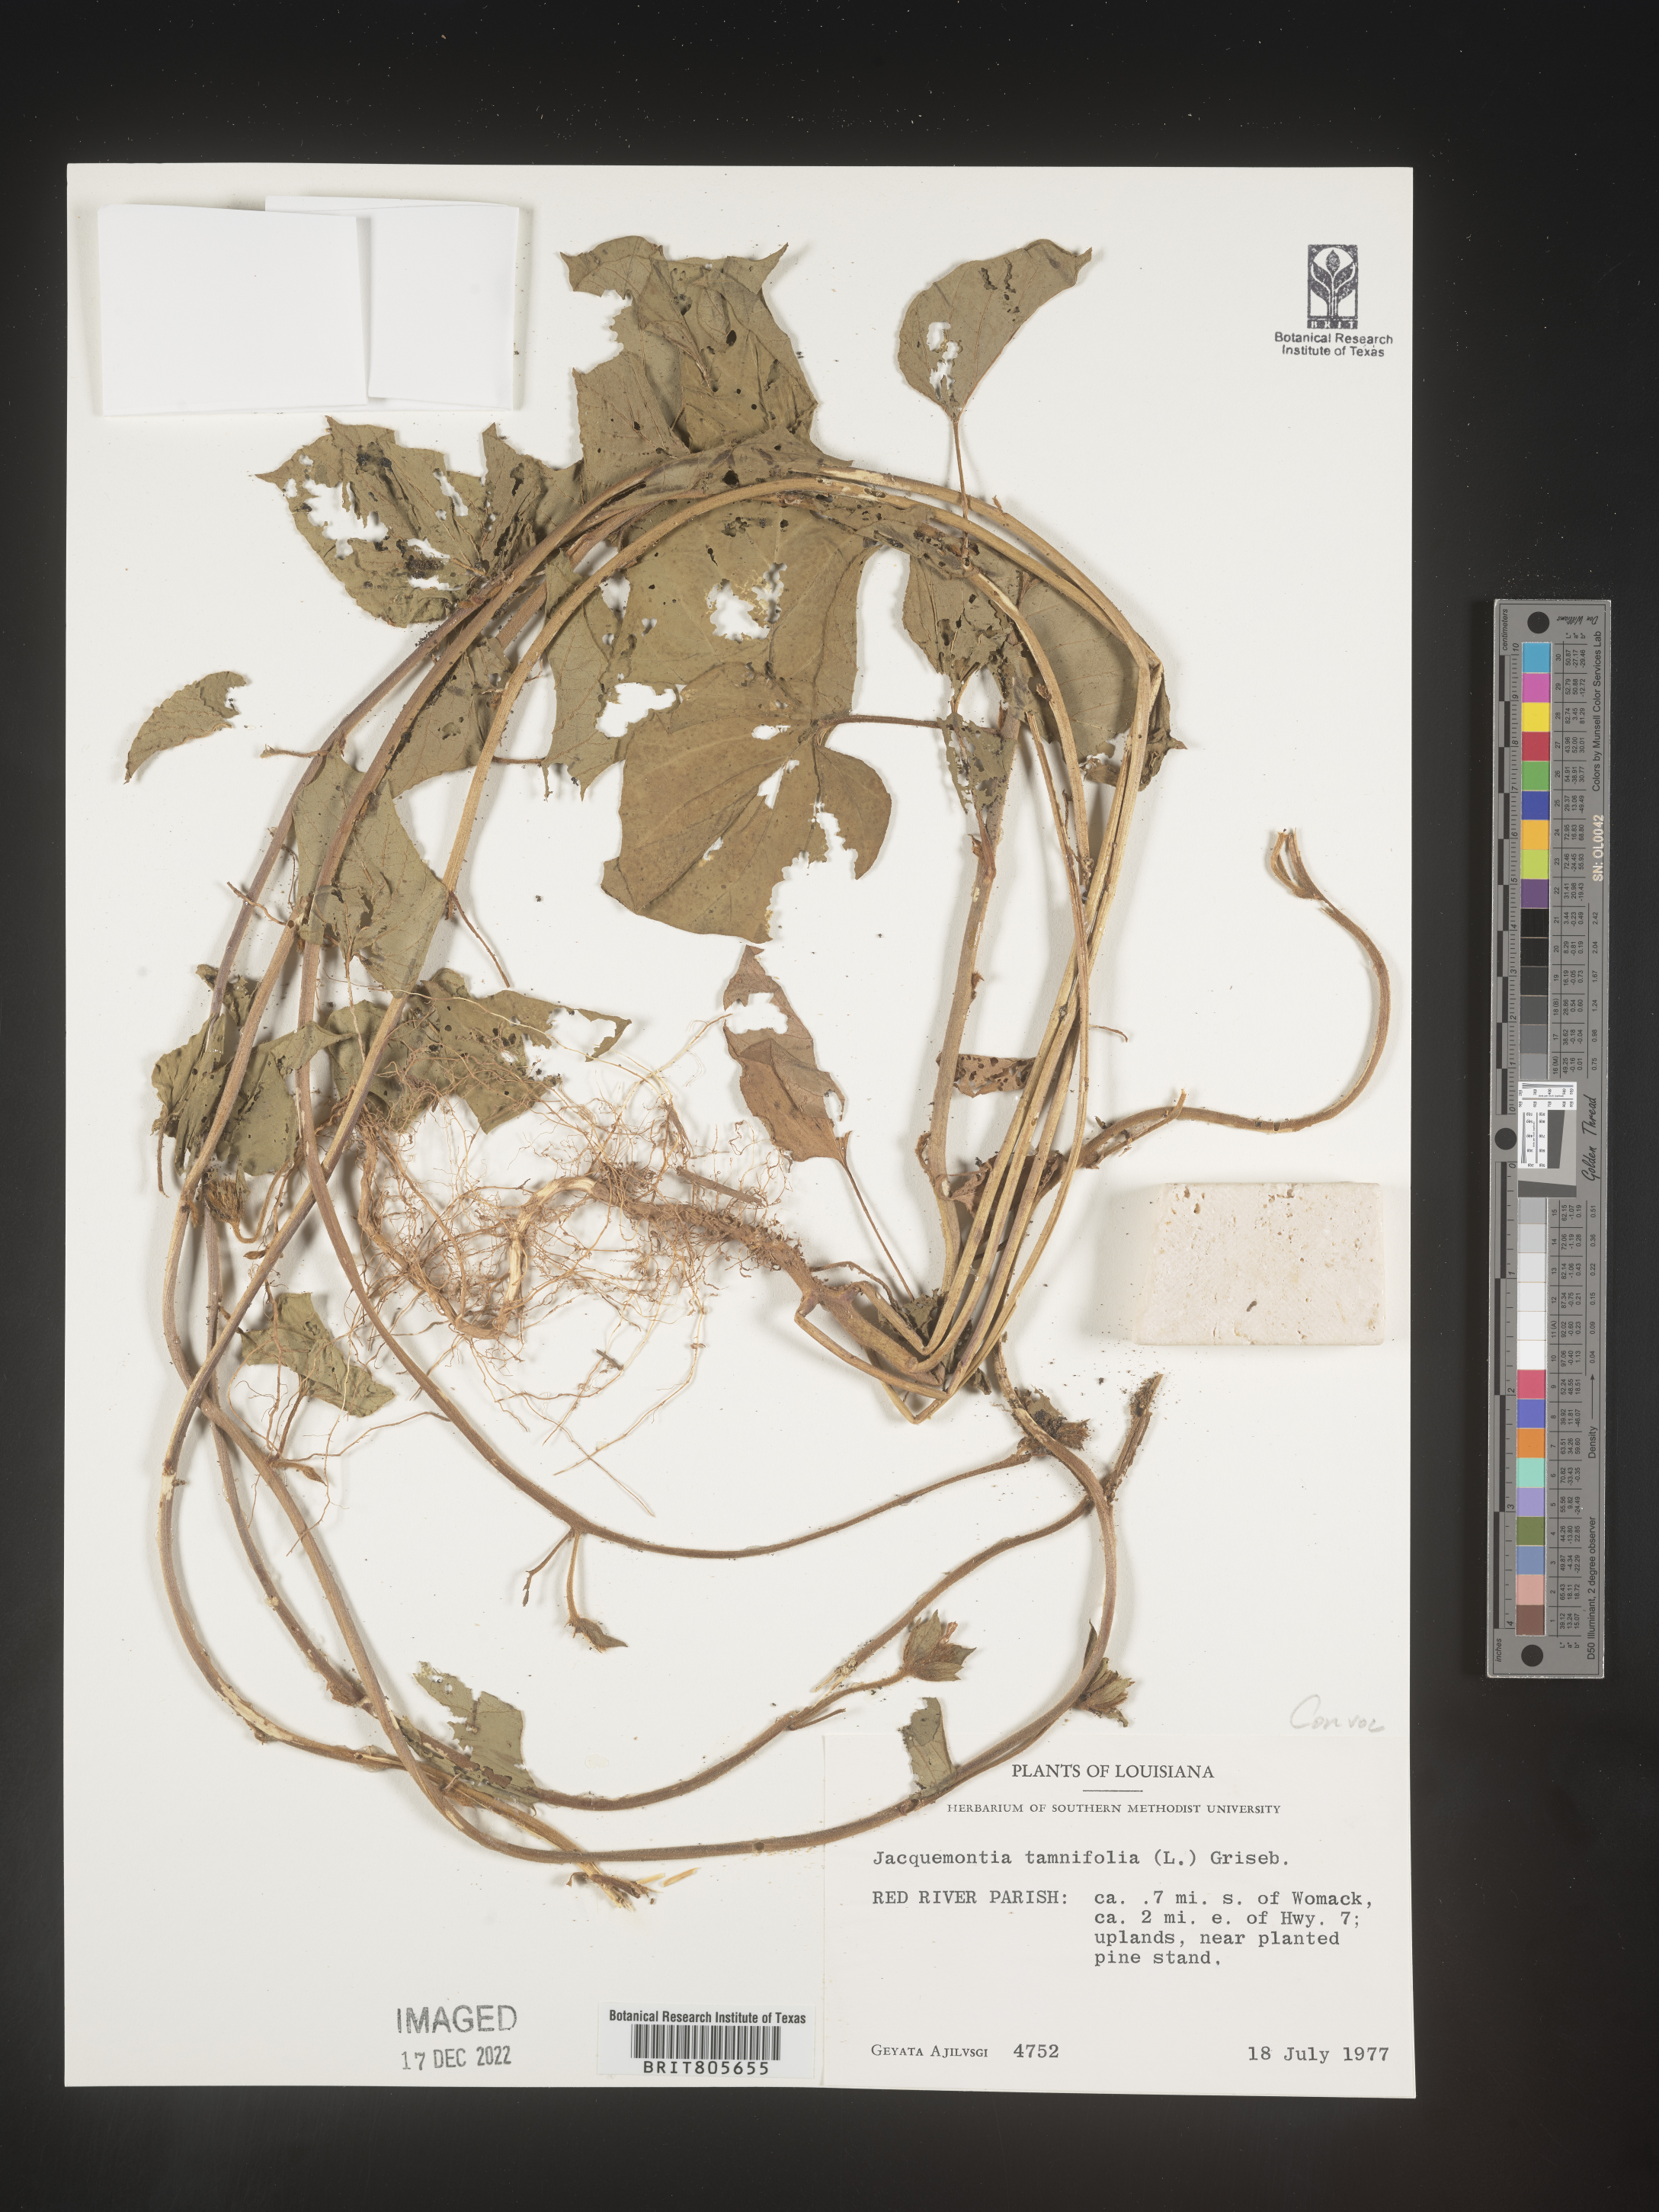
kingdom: Plantae
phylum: Tracheophyta
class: Magnoliopsida
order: Solanales
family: Convolvulaceae
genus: Jacquemontia
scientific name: Jacquemontia tamnifolia
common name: Hairy clustervine
